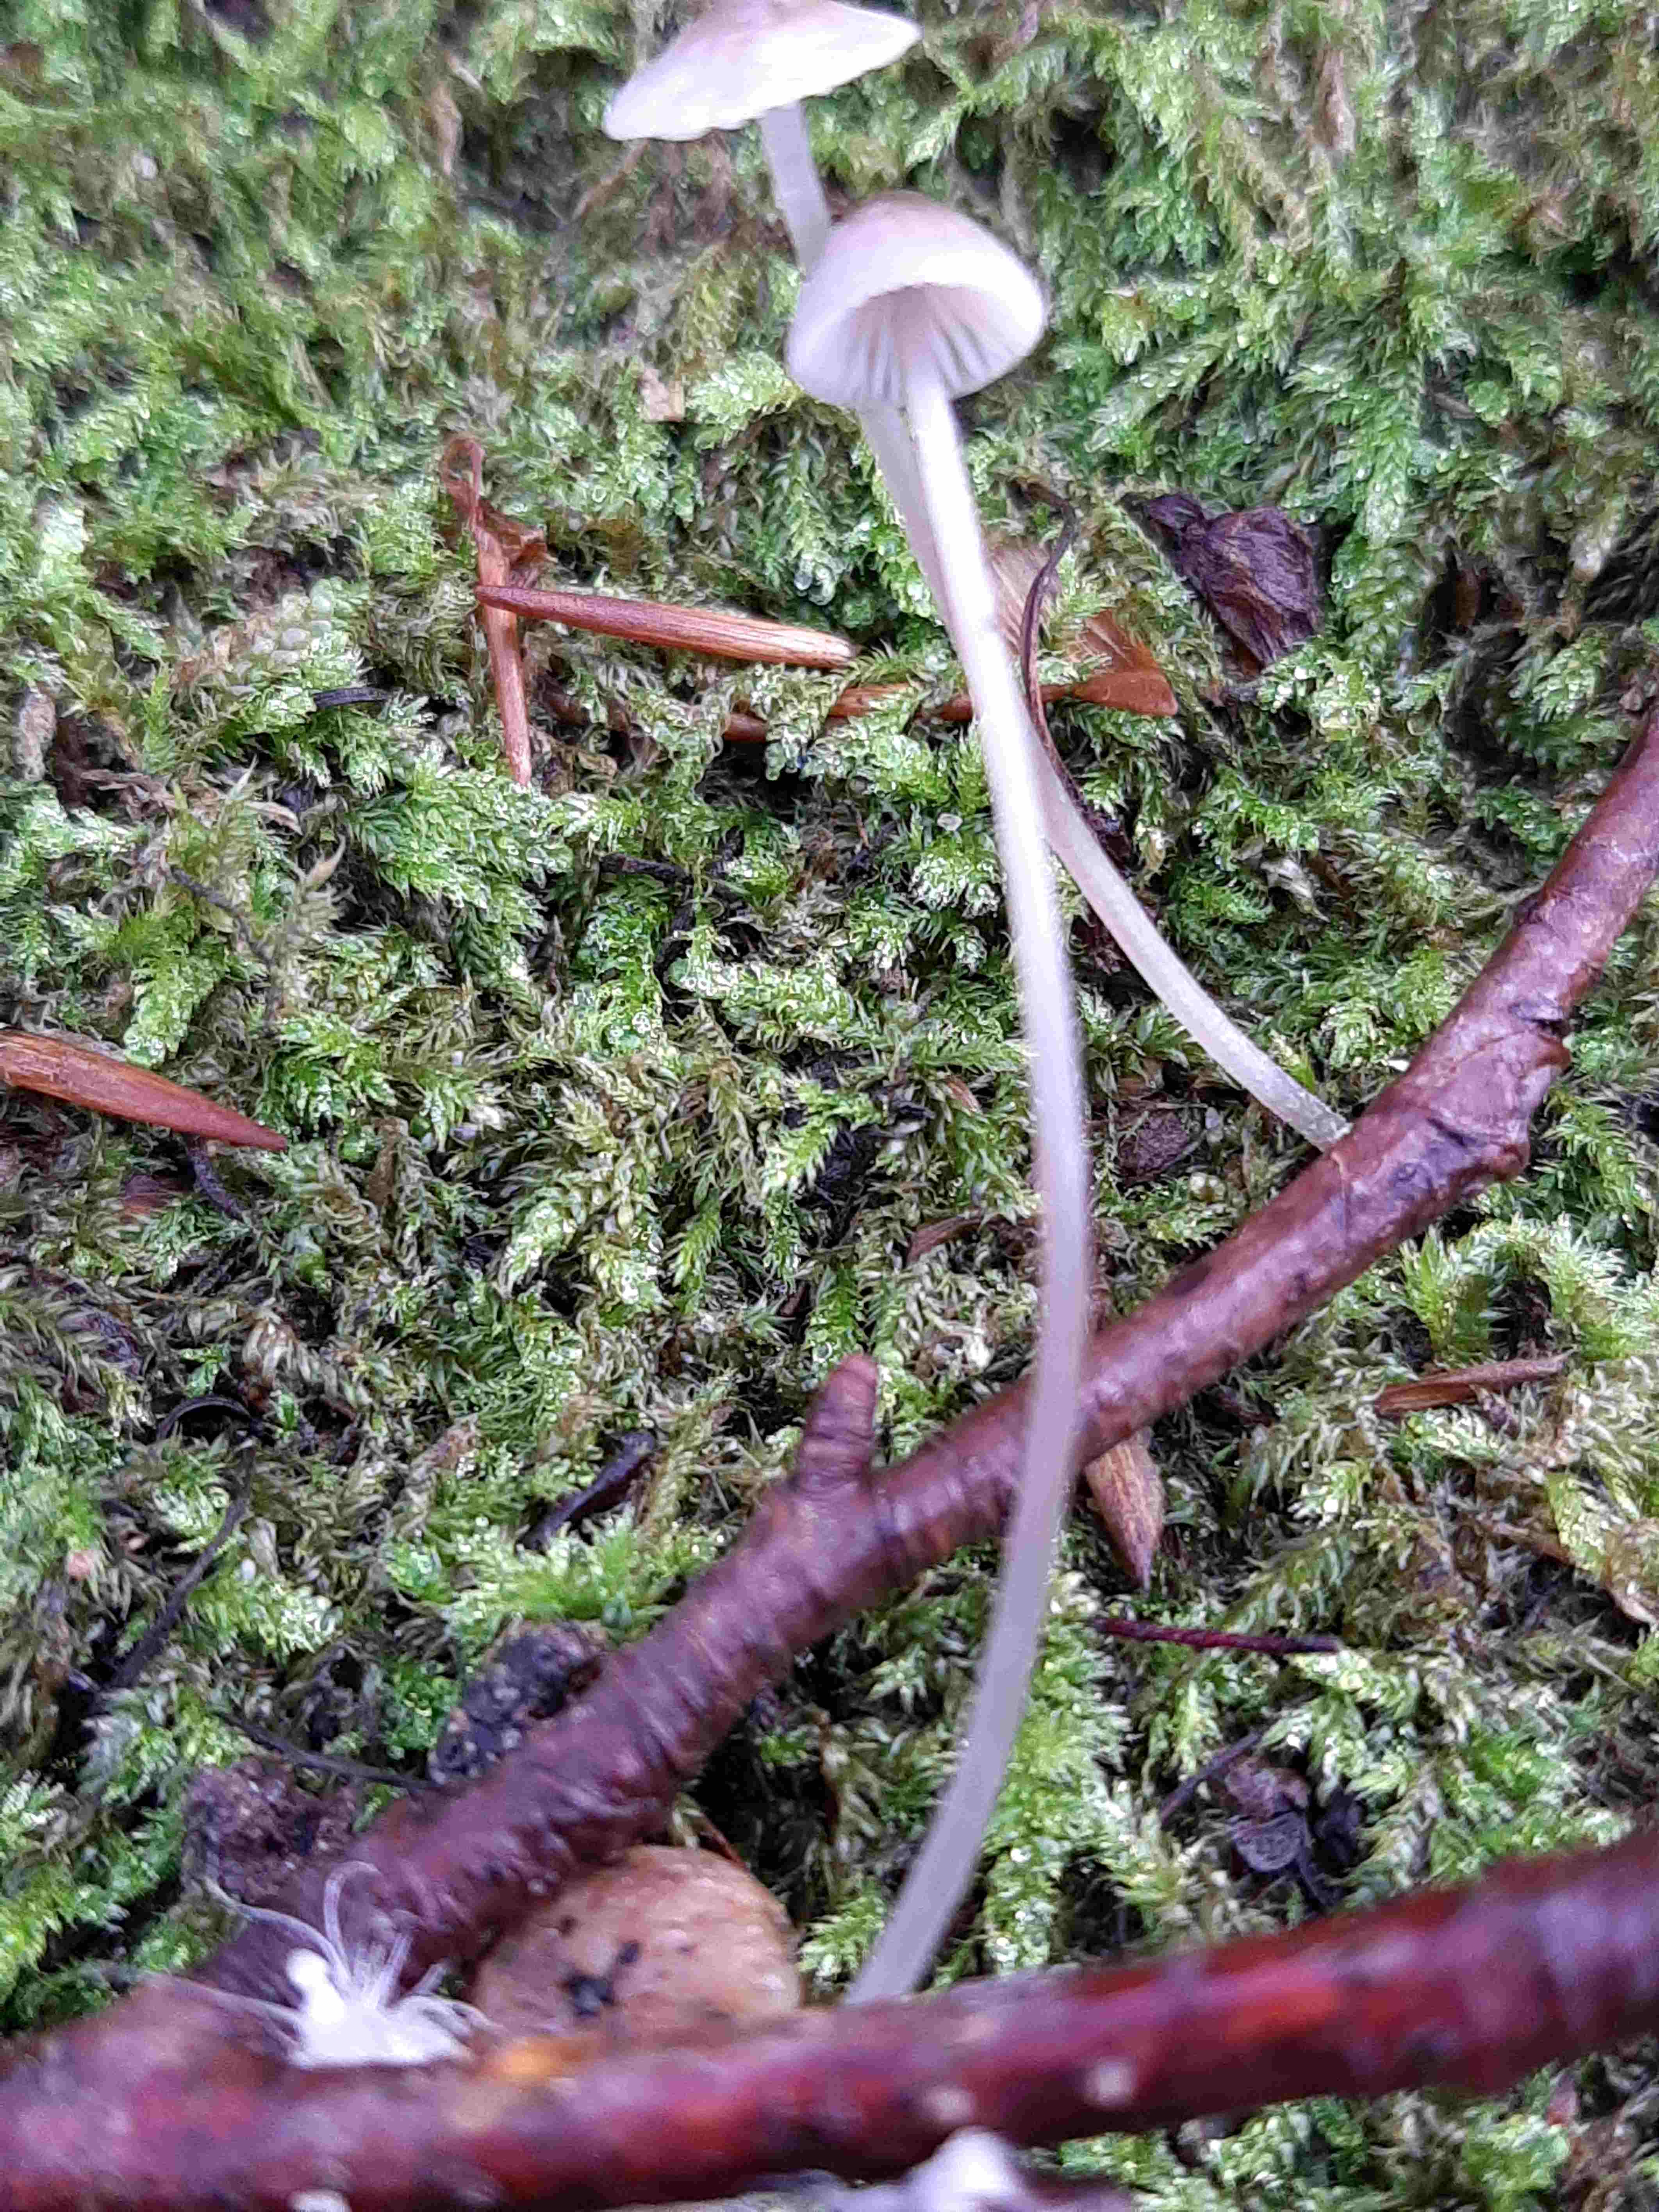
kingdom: Fungi
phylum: Basidiomycota
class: Agaricomycetes
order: Agaricales
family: Mycenaceae
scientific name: Mycenaceae
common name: huesvampfamilien
